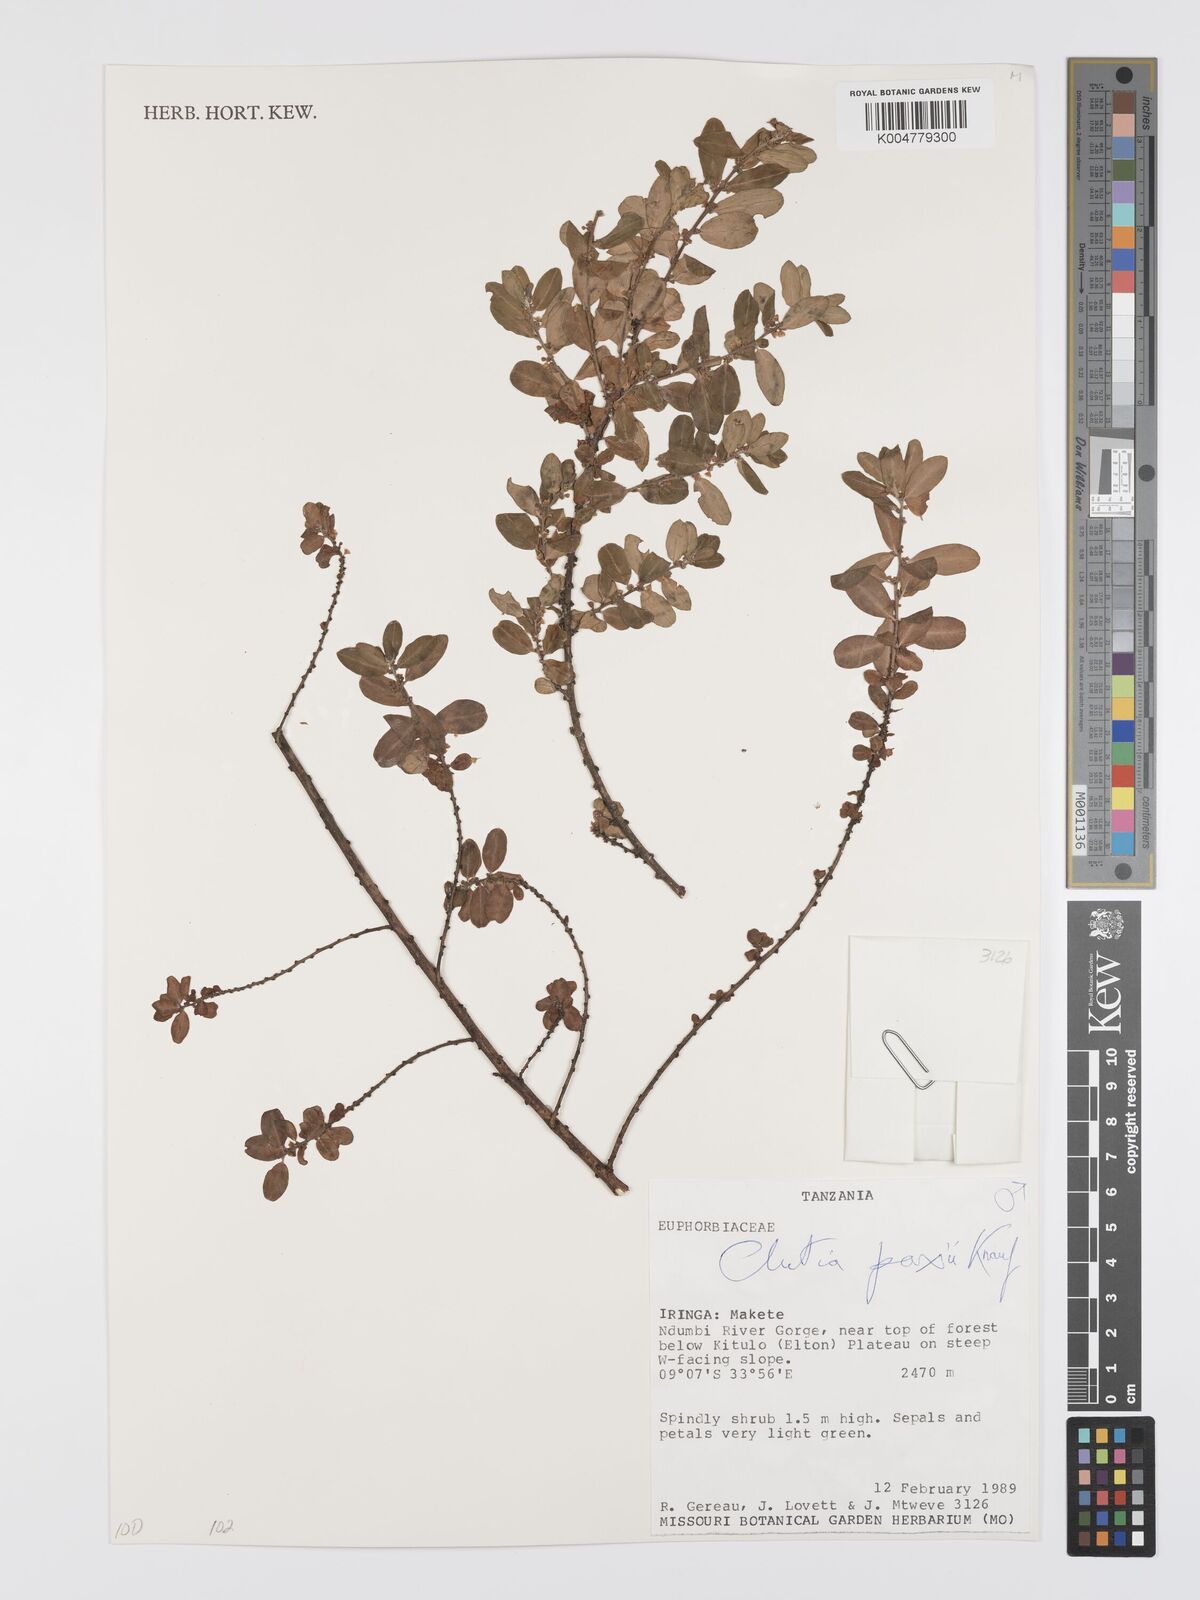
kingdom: Plantae
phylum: Tracheophyta
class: Magnoliopsida
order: Malpighiales
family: Peraceae
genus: Clutia
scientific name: Clutia paxii
